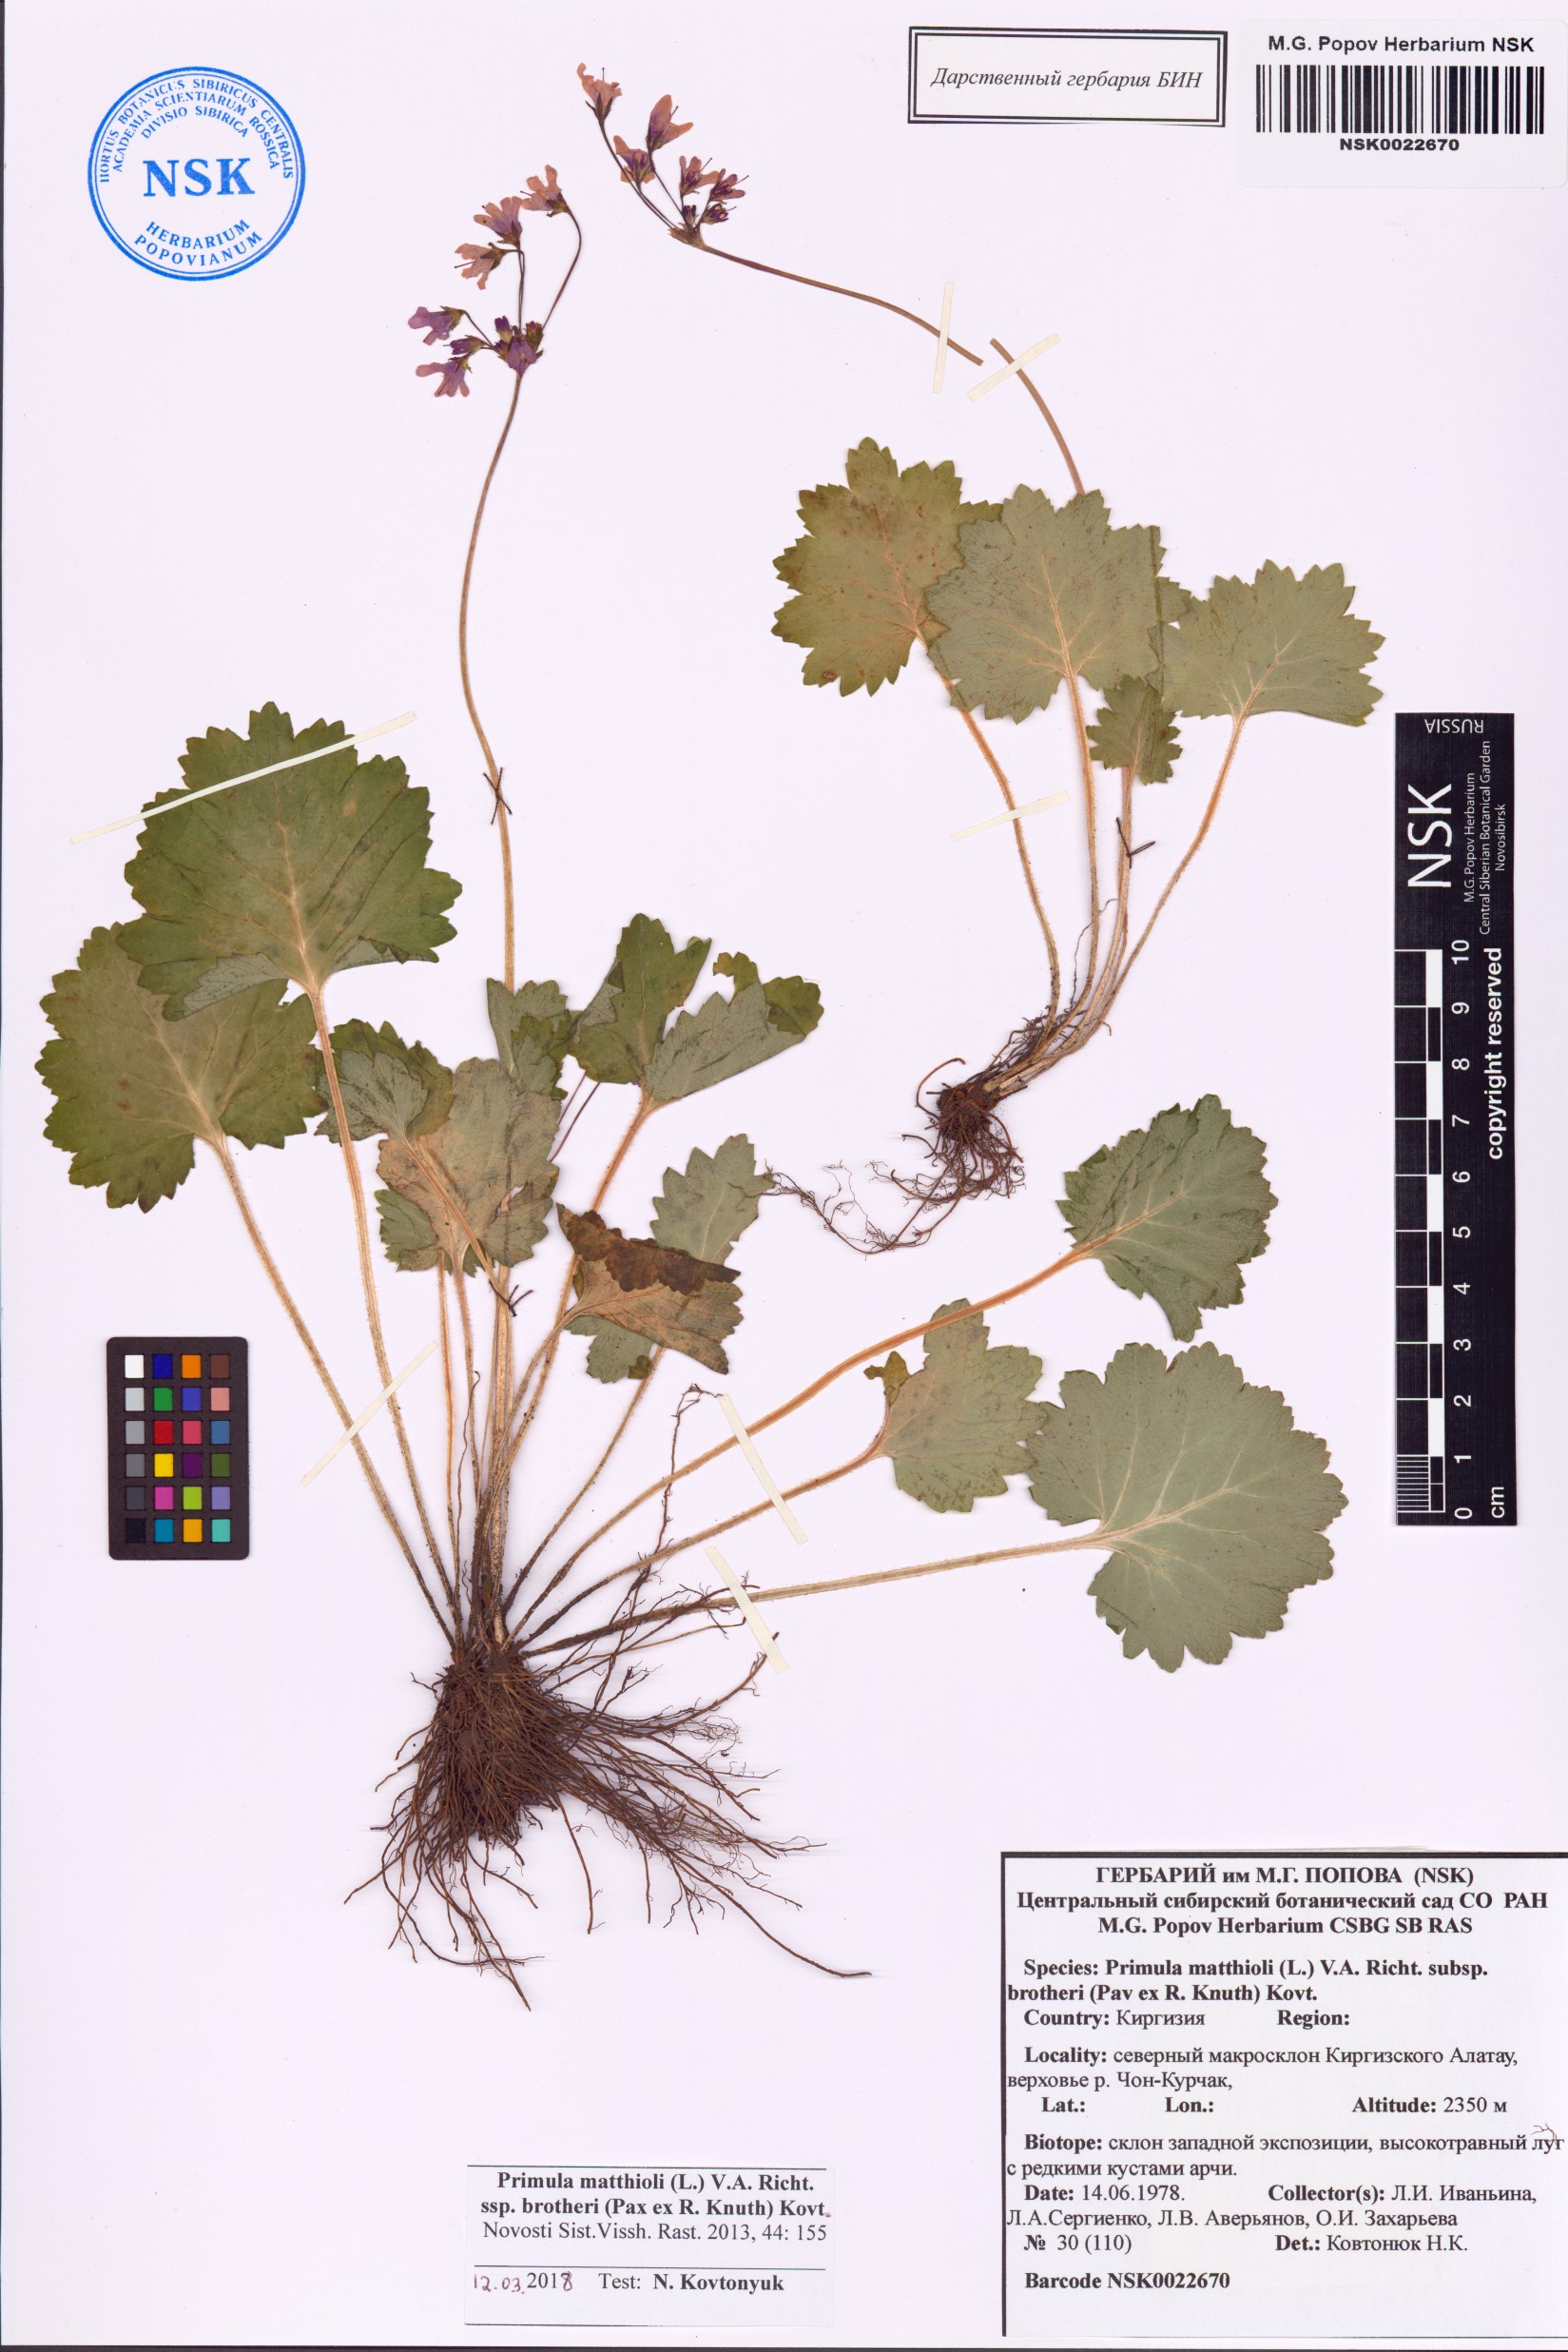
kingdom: Plantae
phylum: Tracheophyta
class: Magnoliopsida
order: Ericales
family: Primulaceae
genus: Primula
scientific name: Primula matthioli
